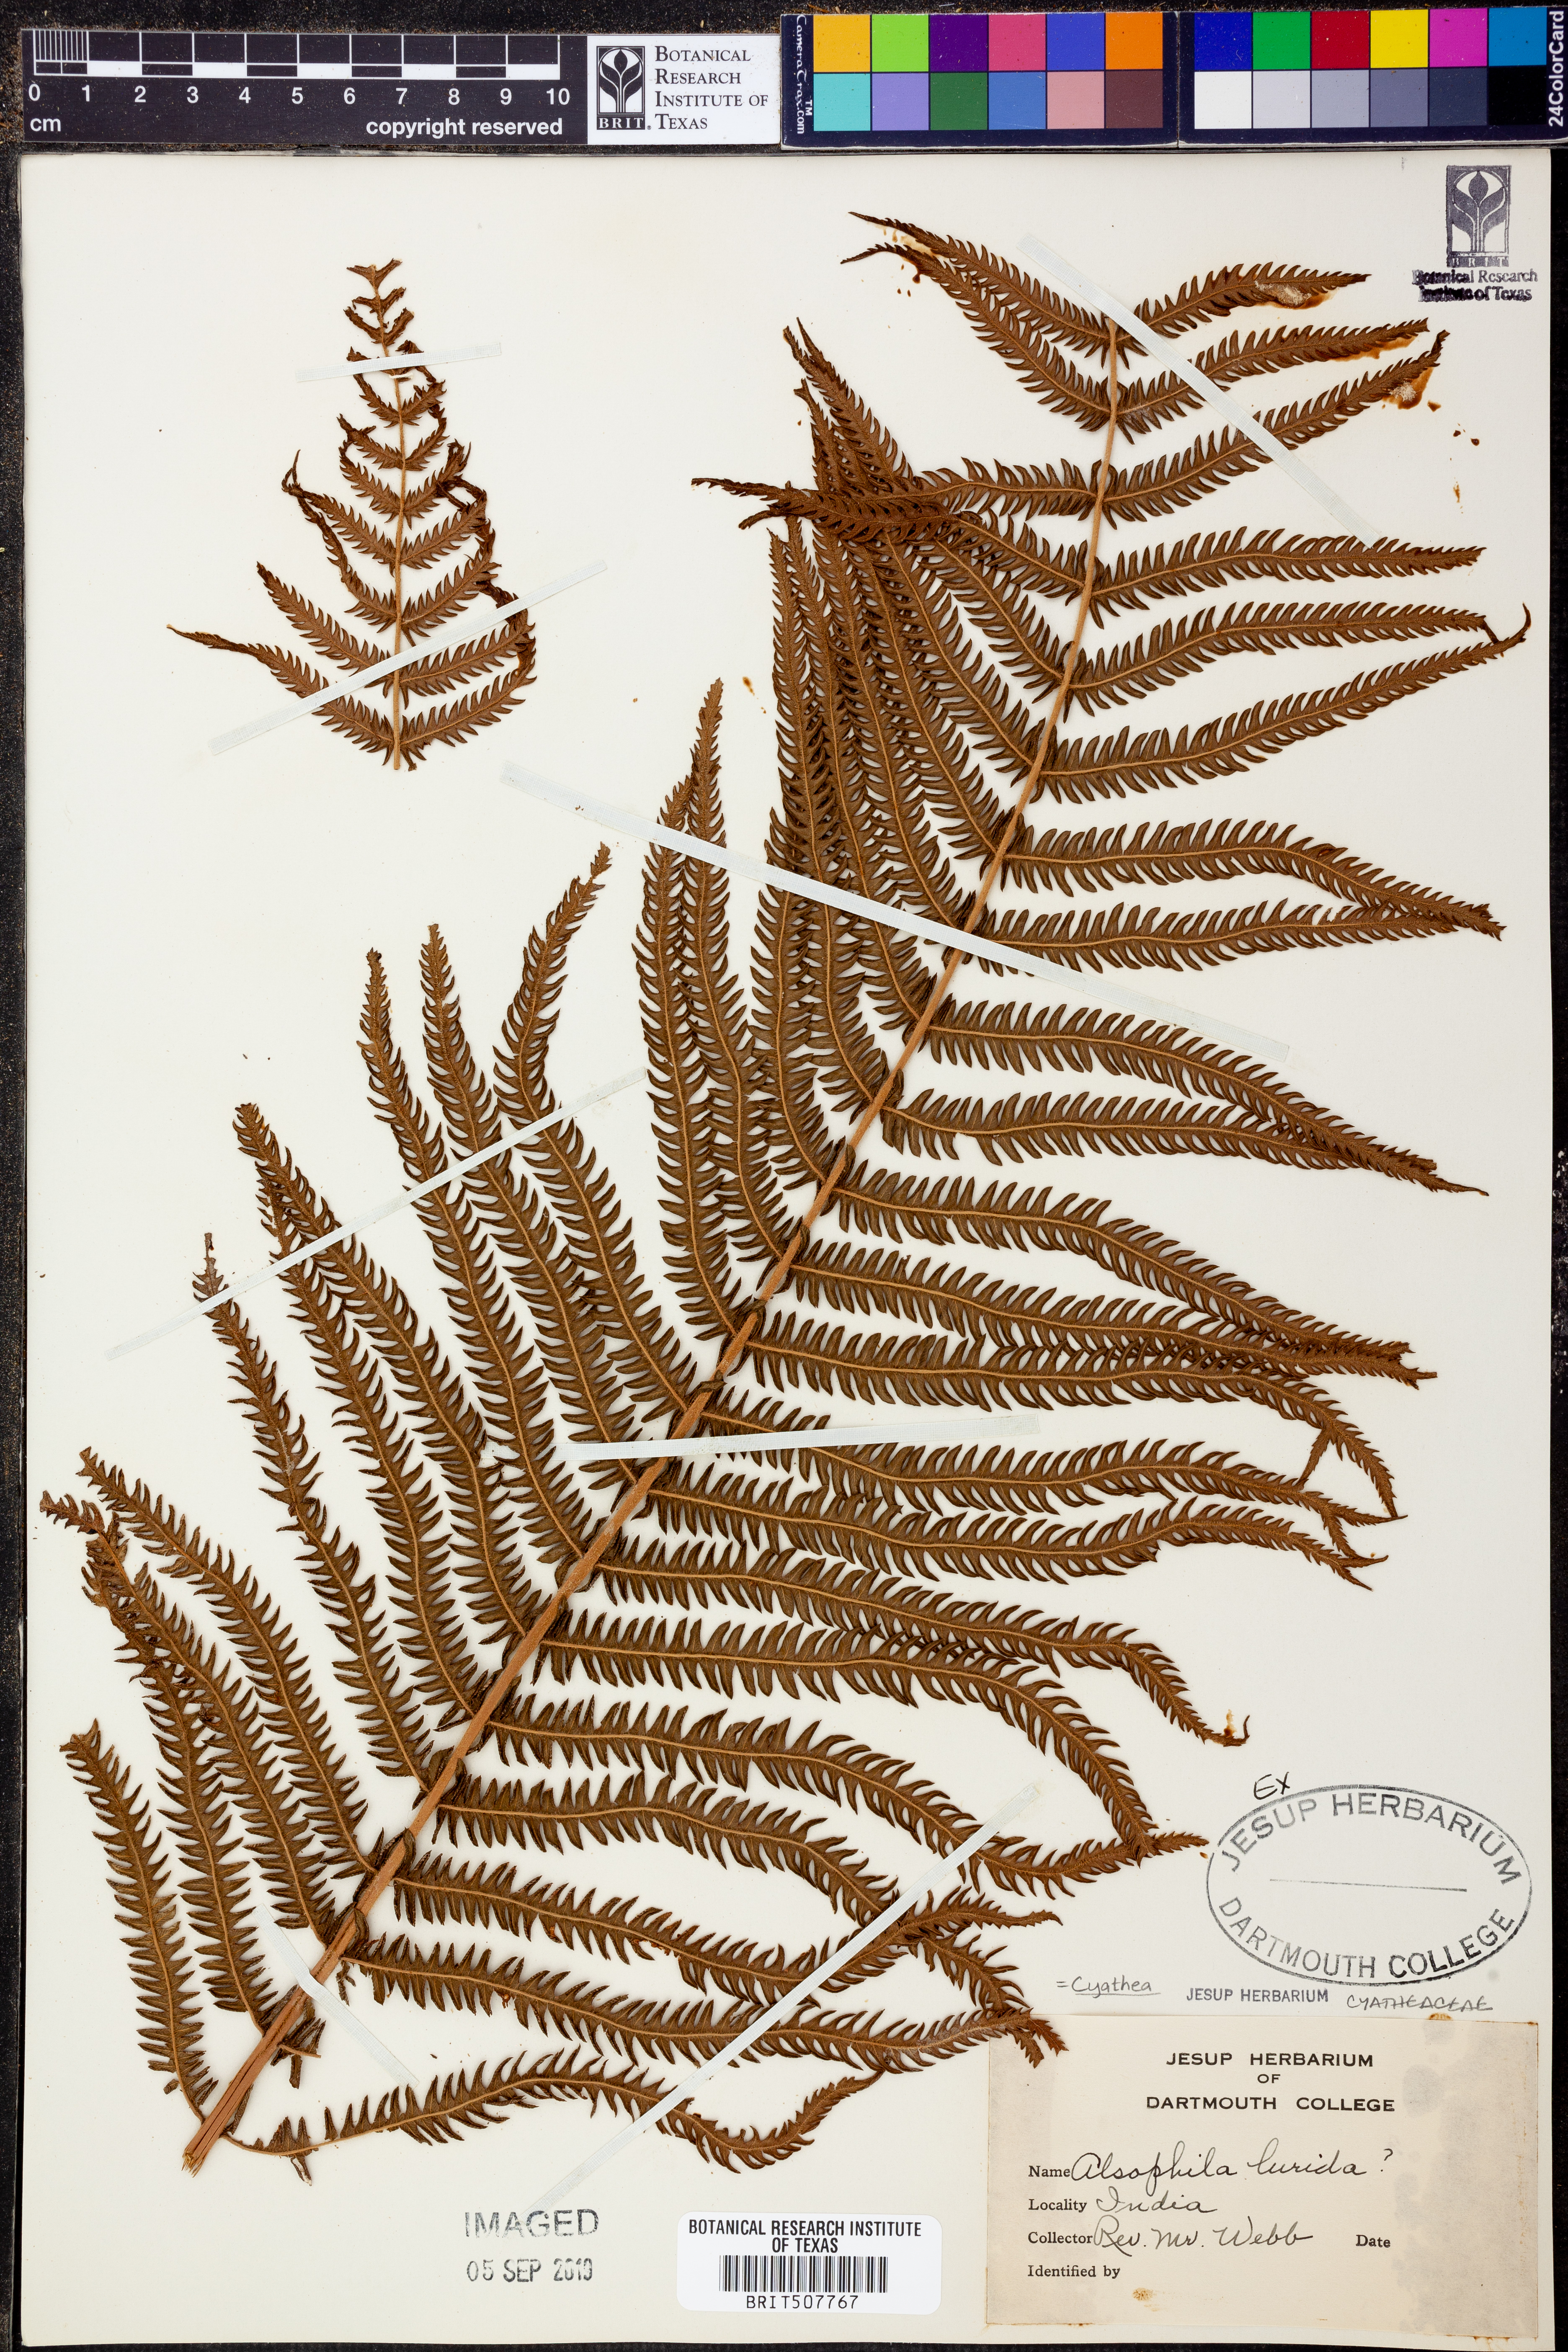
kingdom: Plantae
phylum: Tracheophyta
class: Polypodiopsida
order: Cyatheales
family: Cyatheaceae
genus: Gymnosphaera
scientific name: Gymnosphaera lurida
